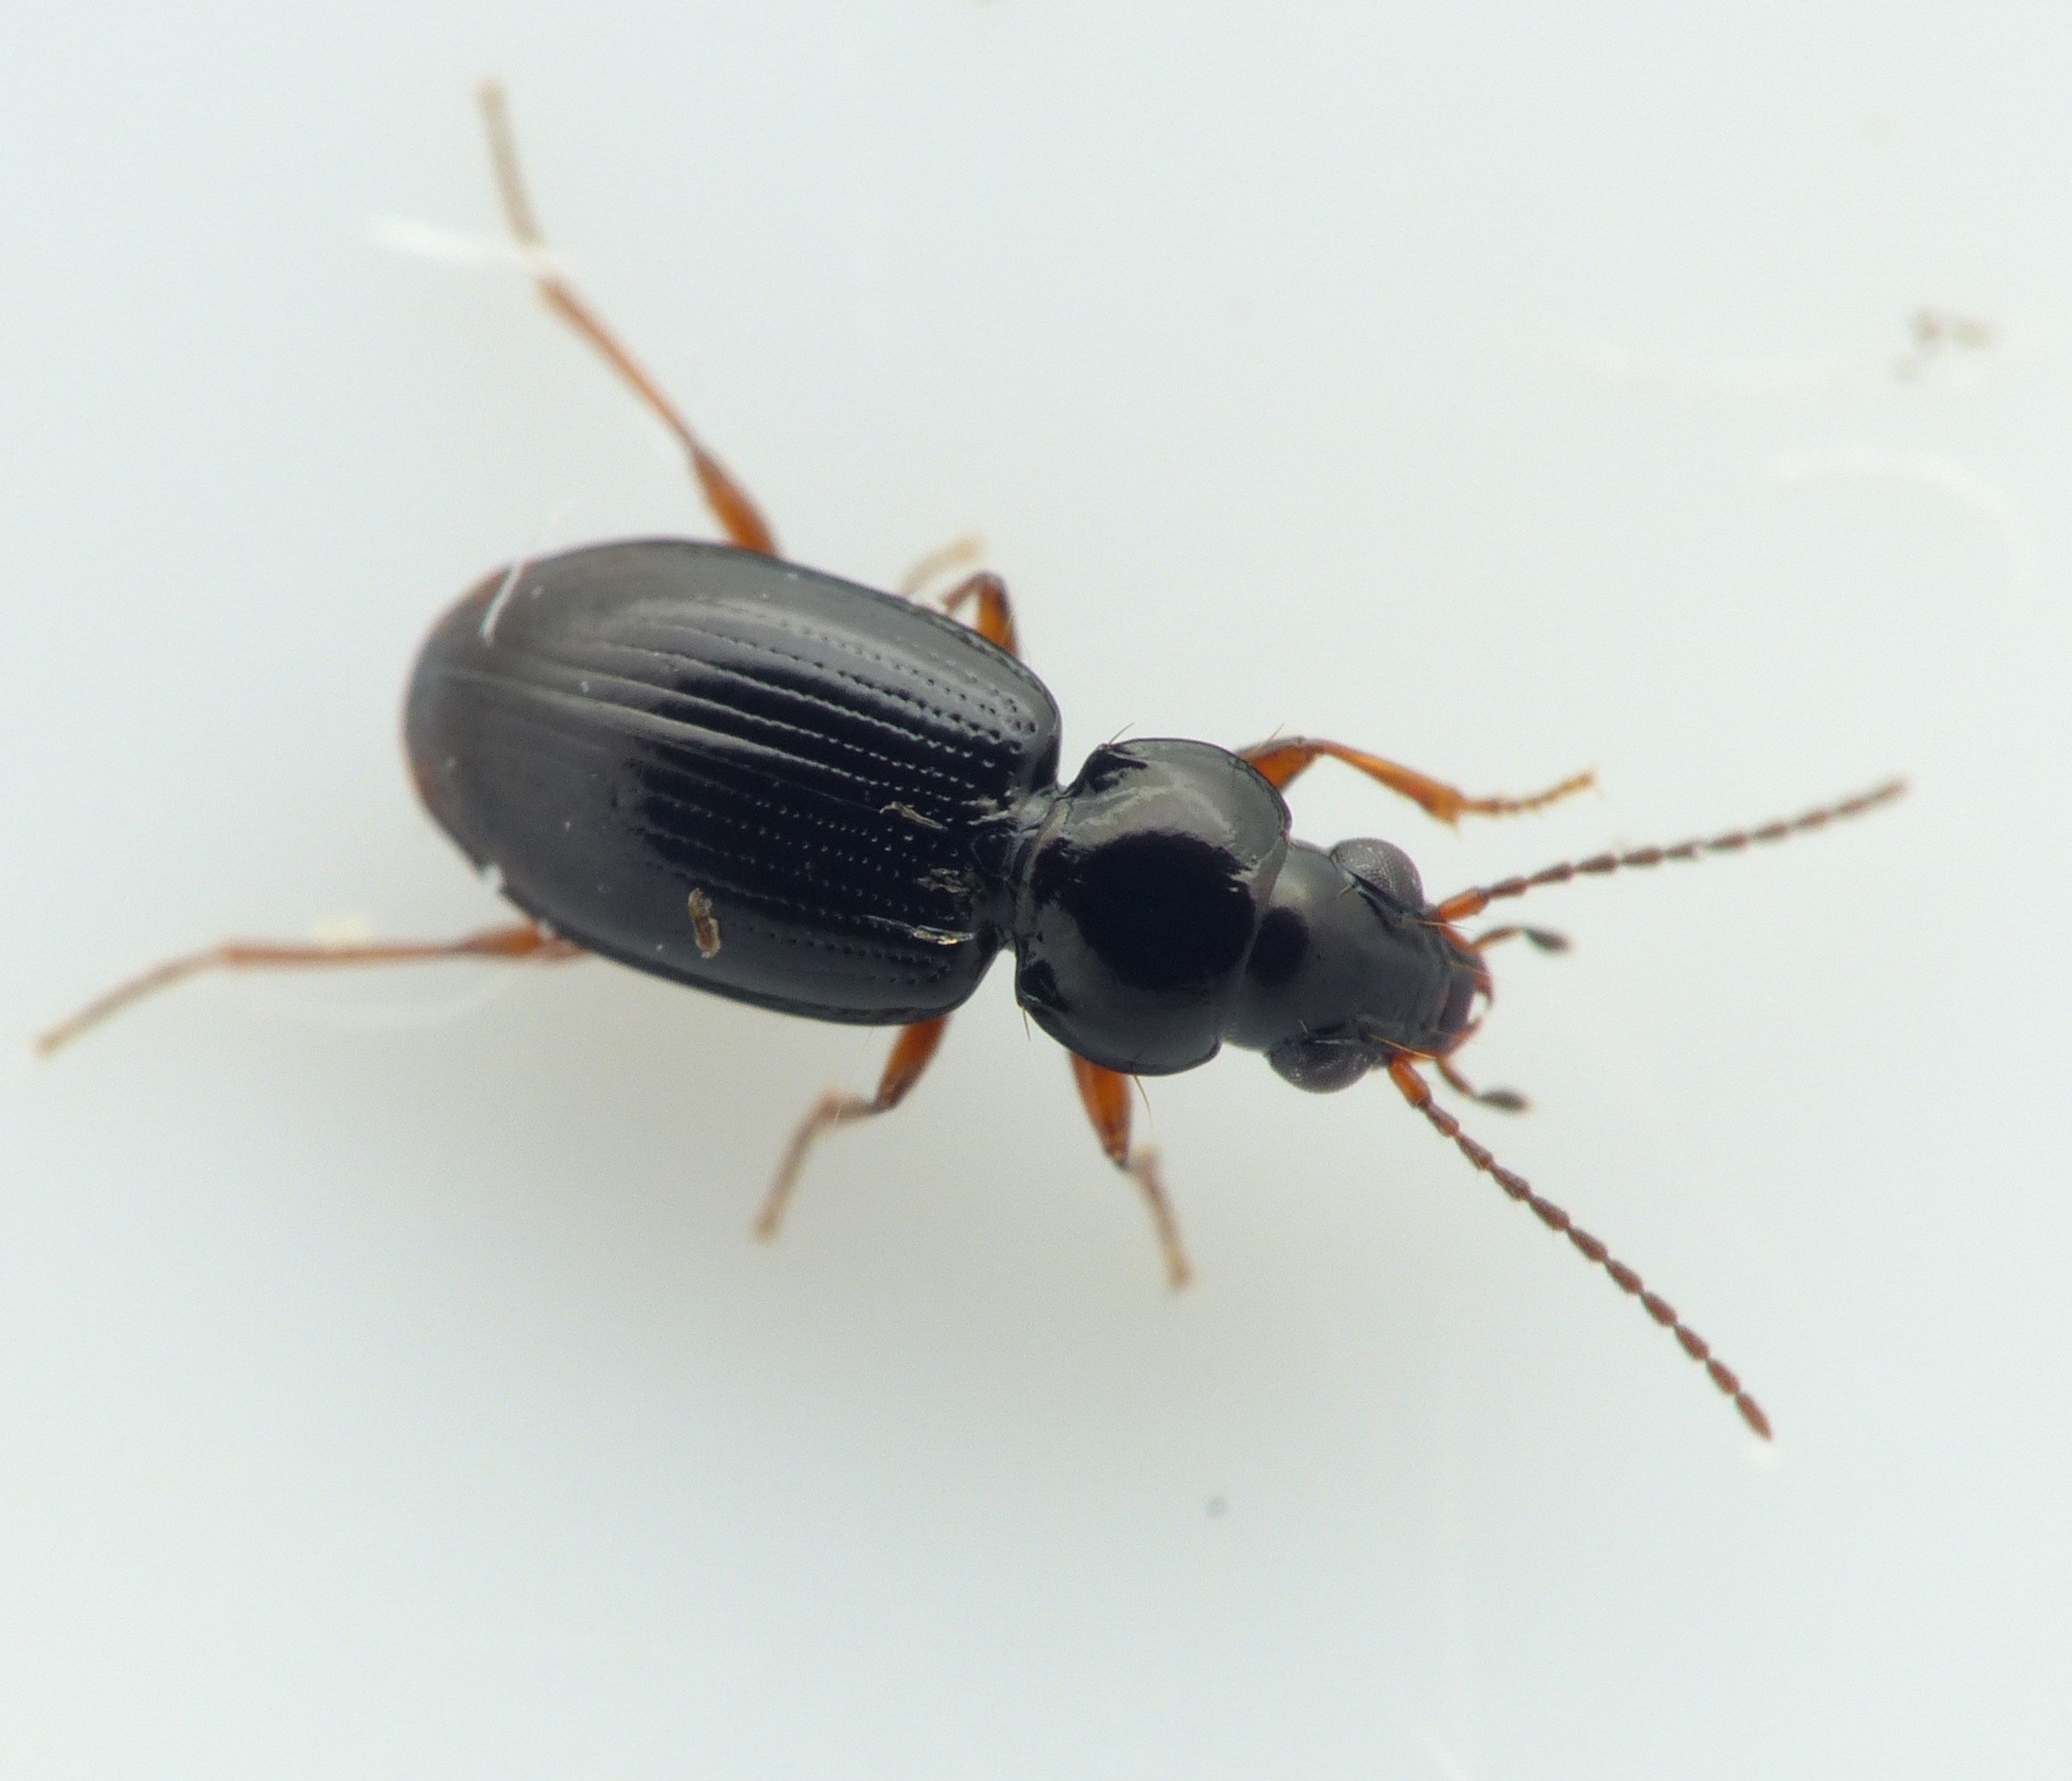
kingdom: Animalia
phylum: Arthropoda
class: Insecta
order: Coleoptera
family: Carabidae
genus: Bembidion
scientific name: Bembidion mannerheimii
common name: Mannerheims glansløber
